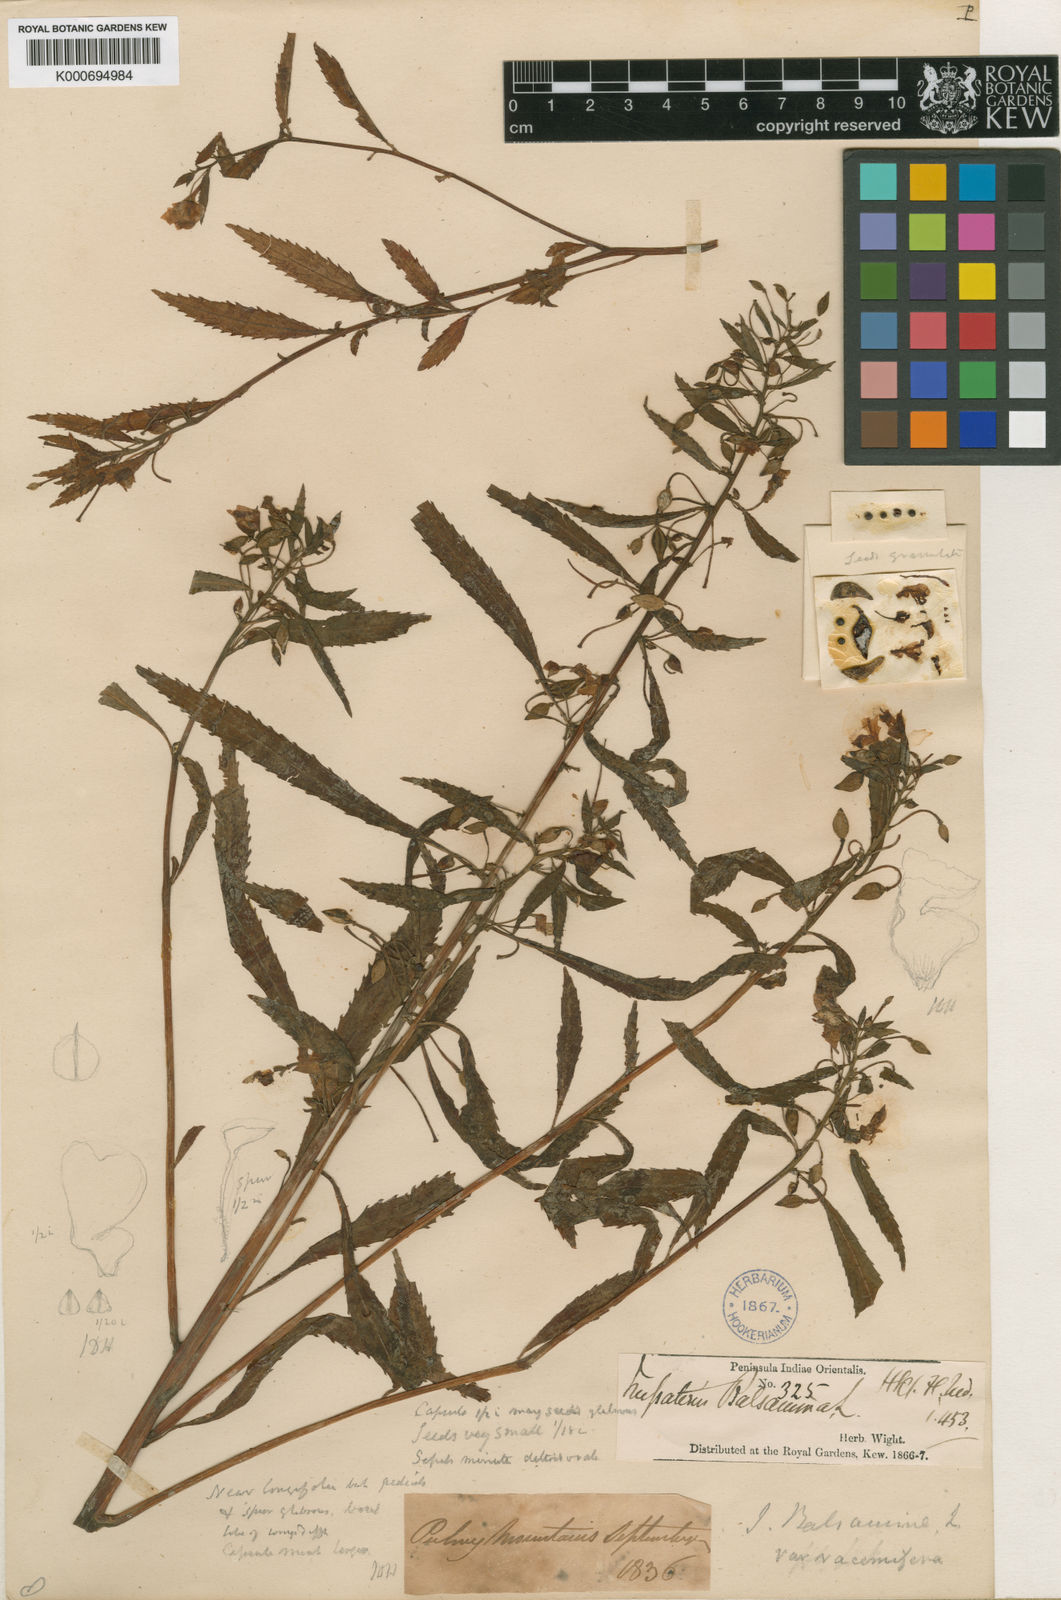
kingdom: Plantae
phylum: Tracheophyta
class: Magnoliopsida
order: Ericales
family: Balsaminaceae
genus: Impatiens
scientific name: Impatiens balsamina
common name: Balsam
